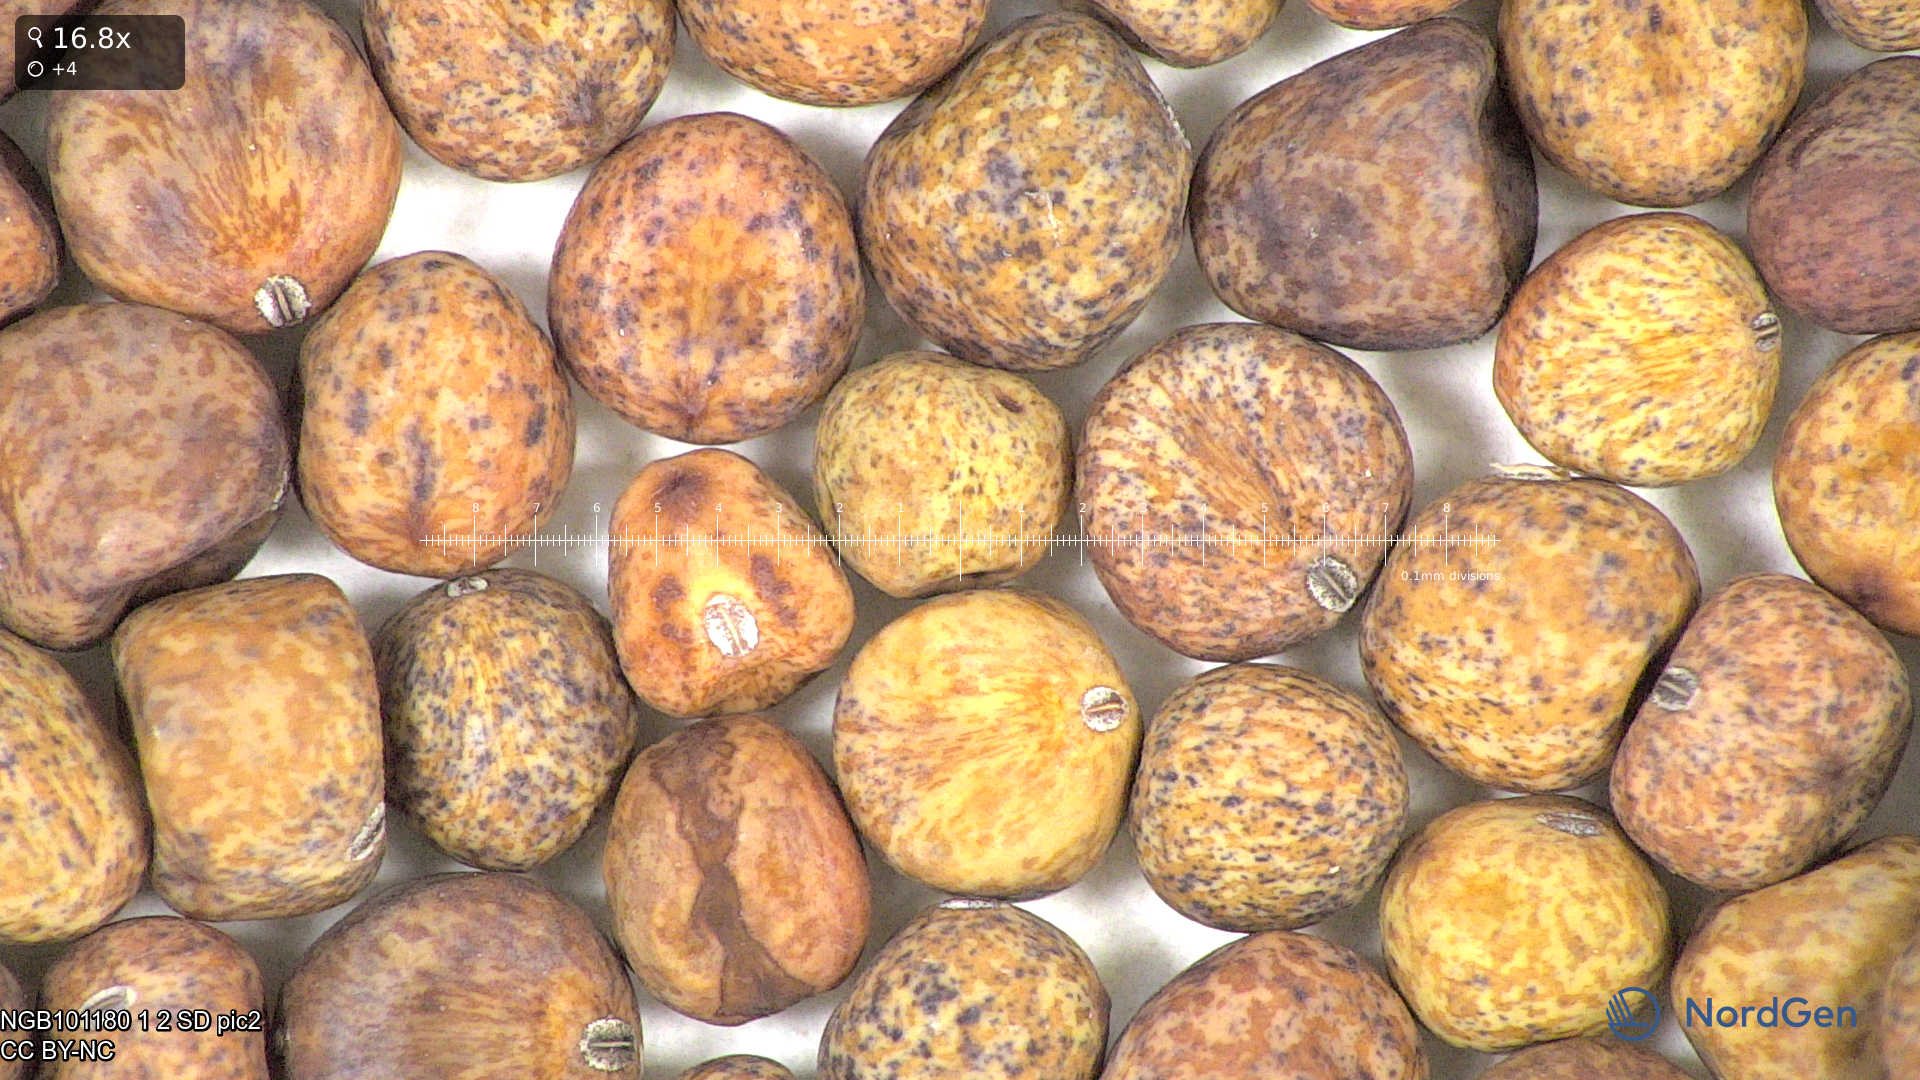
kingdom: Plantae
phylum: Tracheophyta
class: Magnoliopsida
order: Fabales
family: Fabaceae
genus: Lathyrus
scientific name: Lathyrus oleraceus
